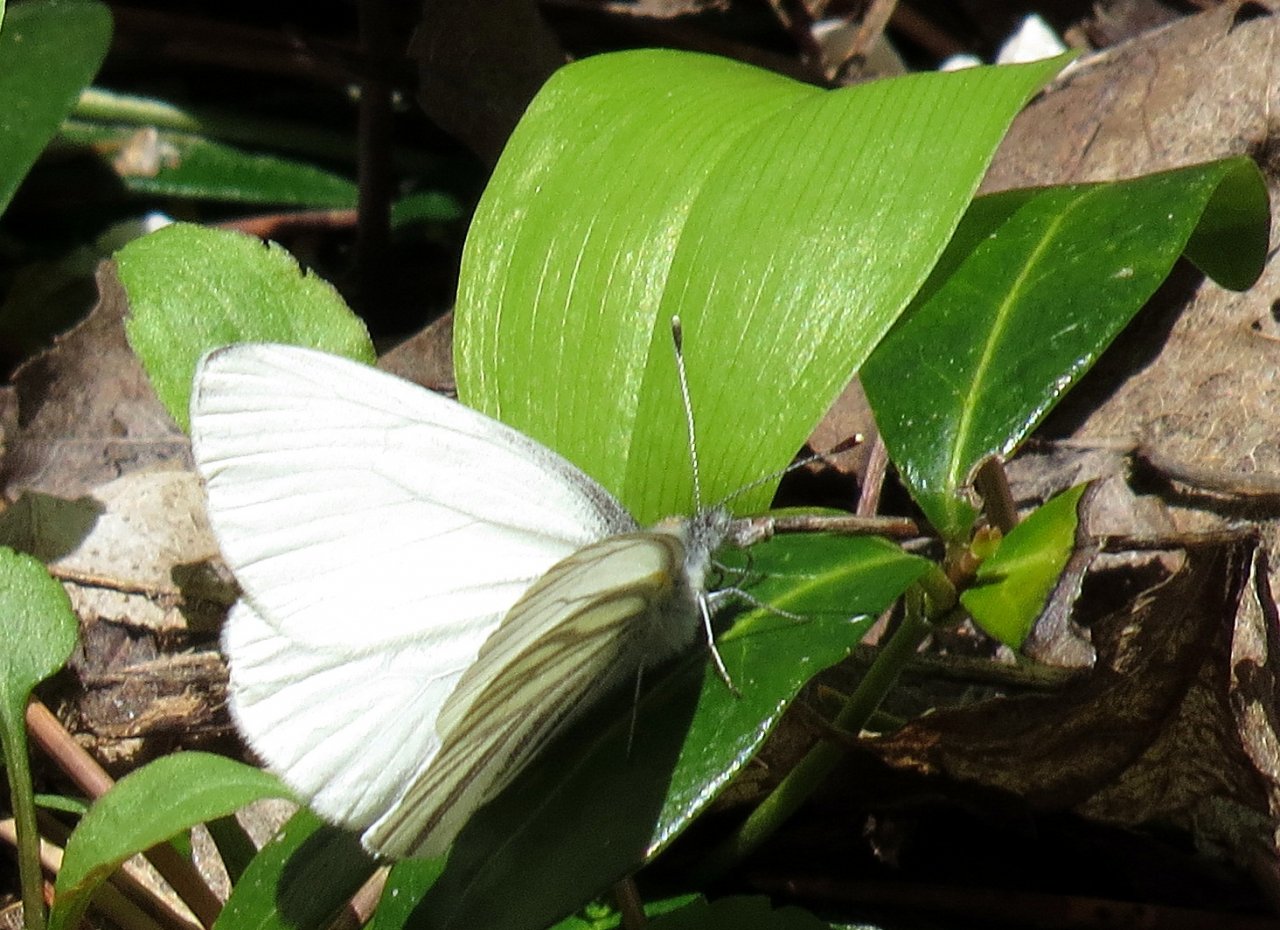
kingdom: Animalia
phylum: Arthropoda
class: Insecta
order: Lepidoptera
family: Pieridae
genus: Pieris
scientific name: Pieris oleracea
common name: Mustard White
